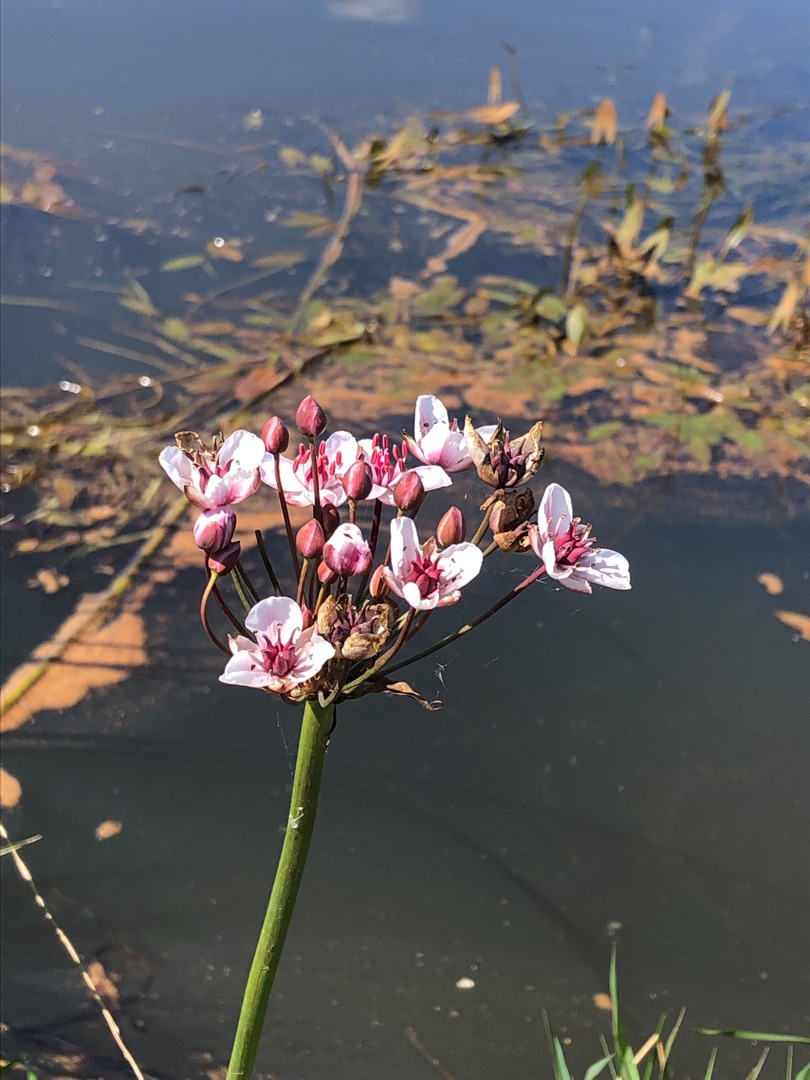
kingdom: Plantae
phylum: Tracheophyta
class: Liliopsida
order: Alismatales
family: Butomaceae
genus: Butomus
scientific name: Butomus umbellatus
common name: Brudelys
